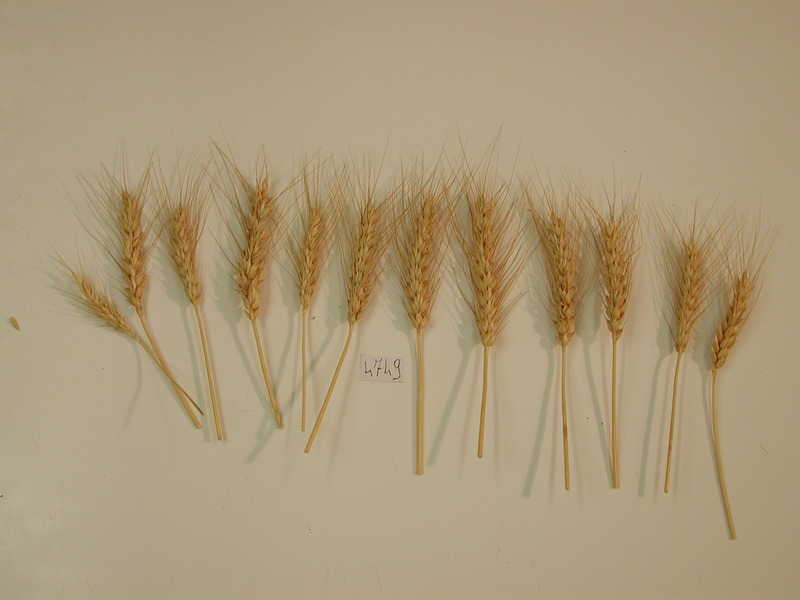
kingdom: Plantae
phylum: Tracheophyta
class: Liliopsida
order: Poales
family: Poaceae
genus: Triticum
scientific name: Triticum aestivum
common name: Wheat
